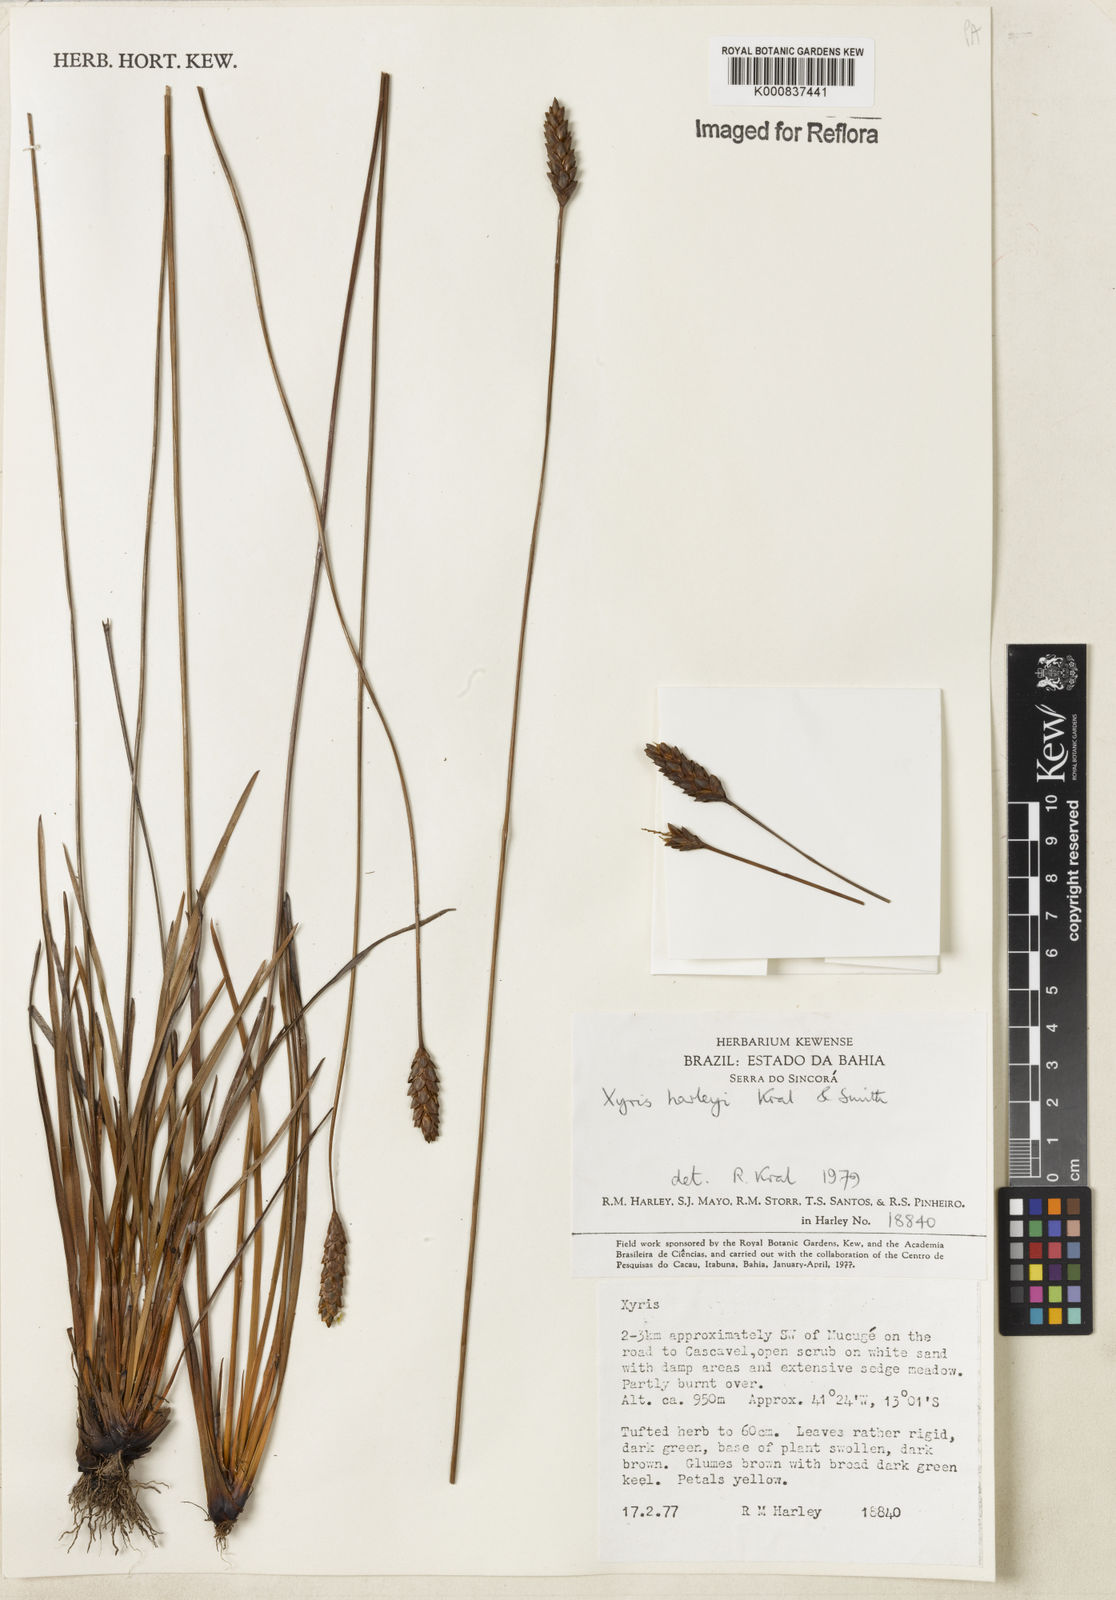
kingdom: Plantae
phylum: Tracheophyta
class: Liliopsida
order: Poales
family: Xyridaceae
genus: Xyris
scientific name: Xyris harleyi
